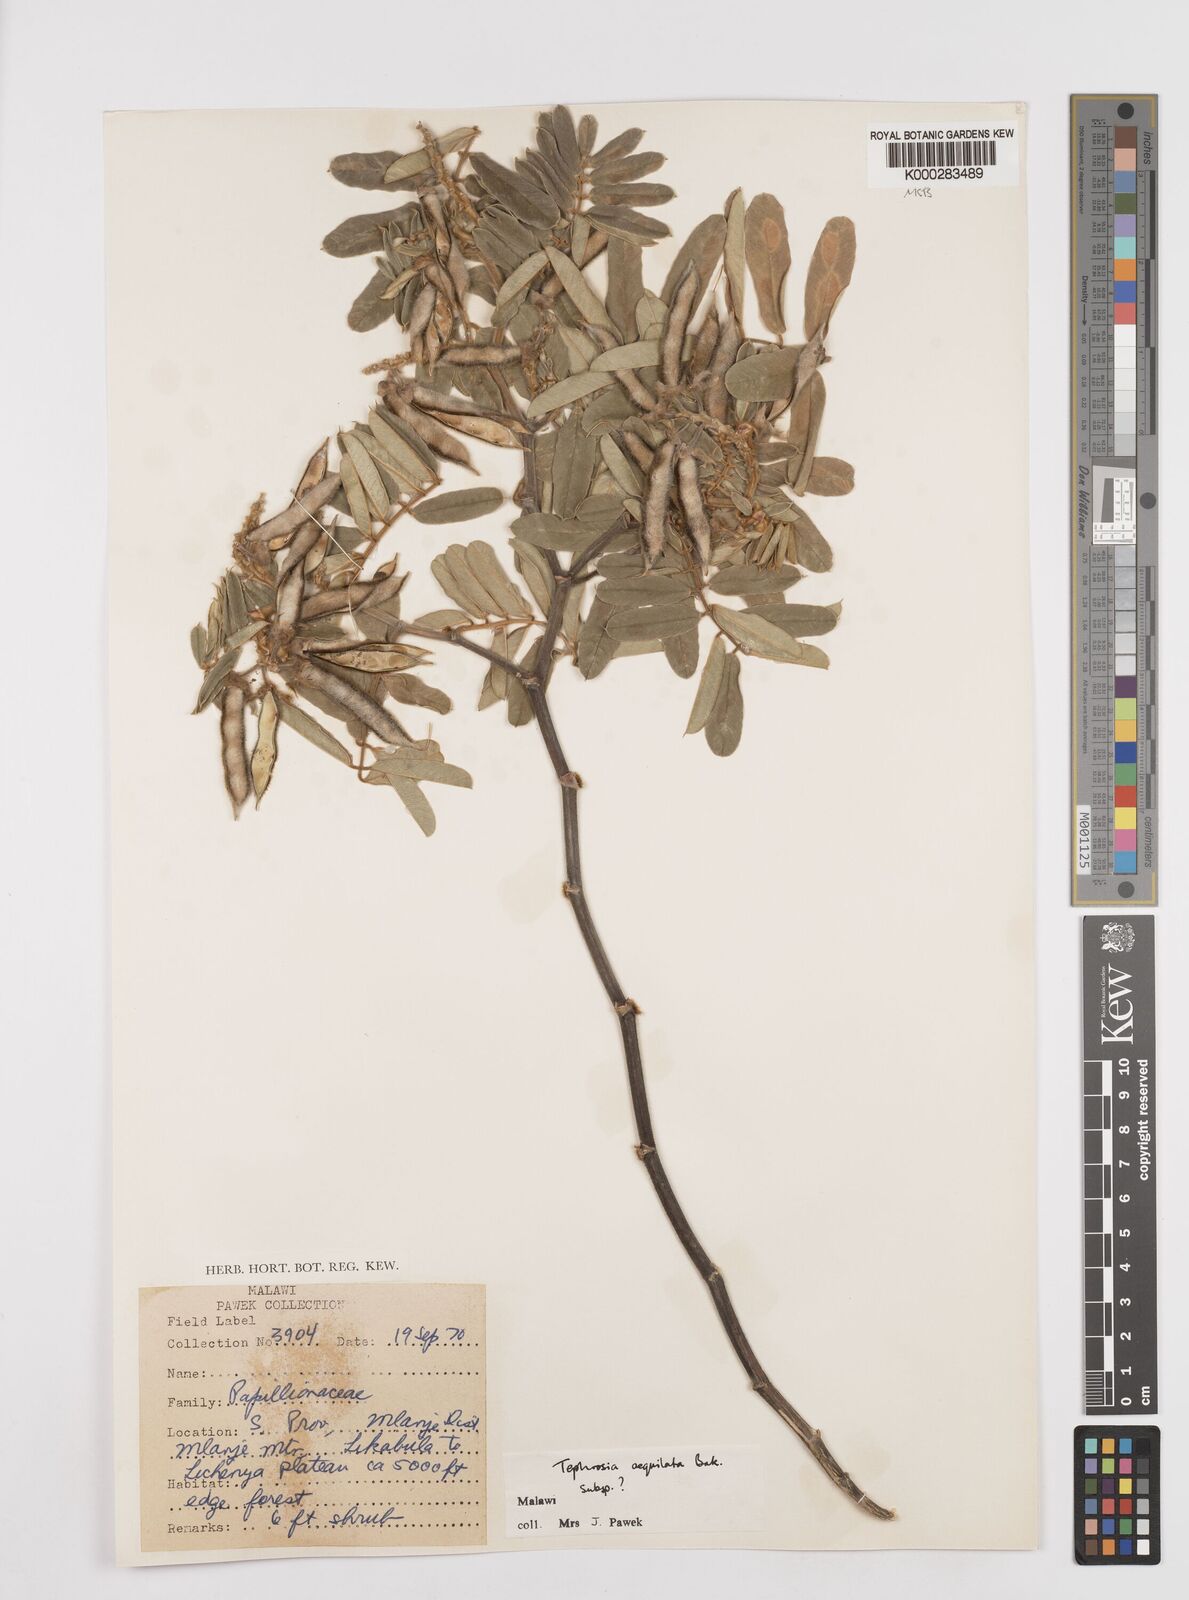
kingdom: Plantae
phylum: Tracheophyta
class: Magnoliopsida
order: Fabales
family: Fabaceae
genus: Tephrosia
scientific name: Tephrosia aequilata
